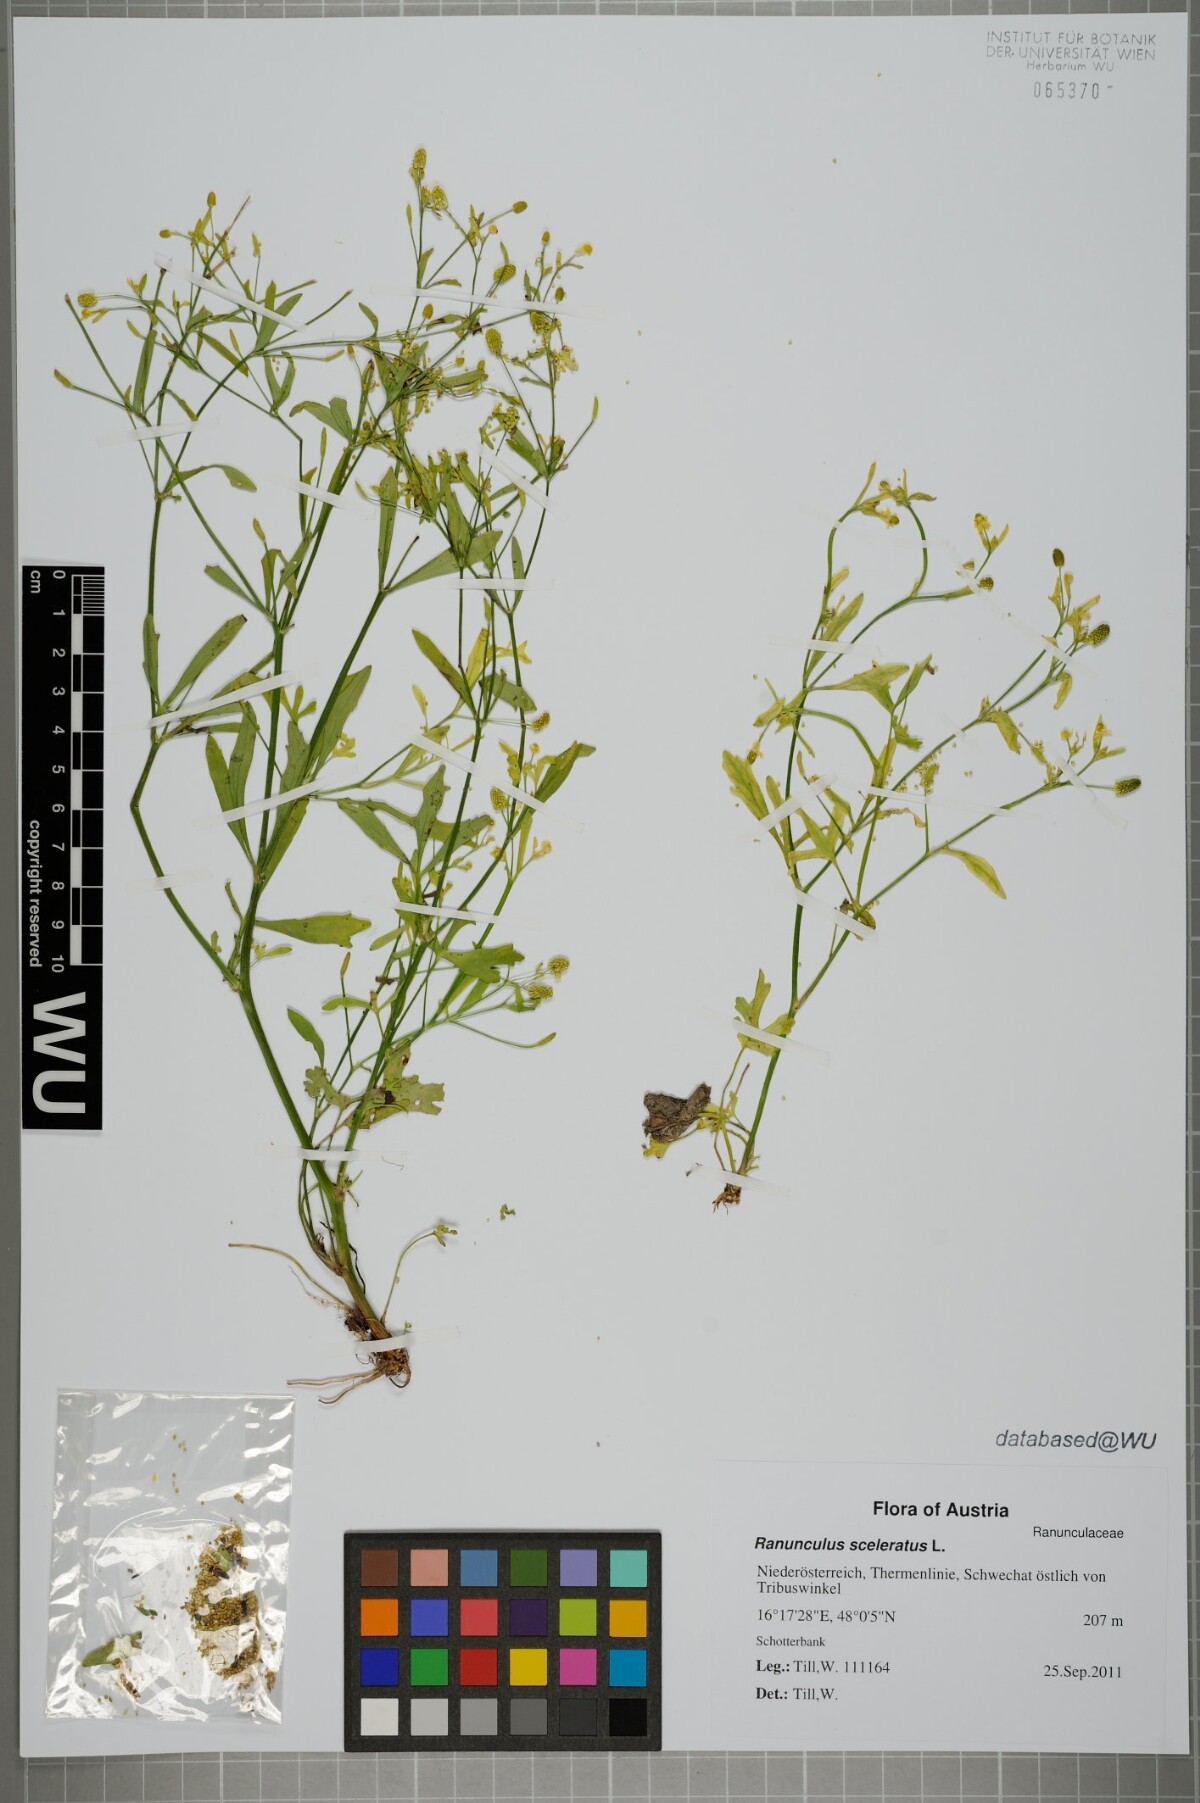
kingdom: Plantae
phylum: Tracheophyta
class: Magnoliopsida
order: Ranunculales
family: Ranunculaceae
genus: Ranunculus
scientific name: Ranunculus sceleratus
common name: Celery-leaved buttercup
